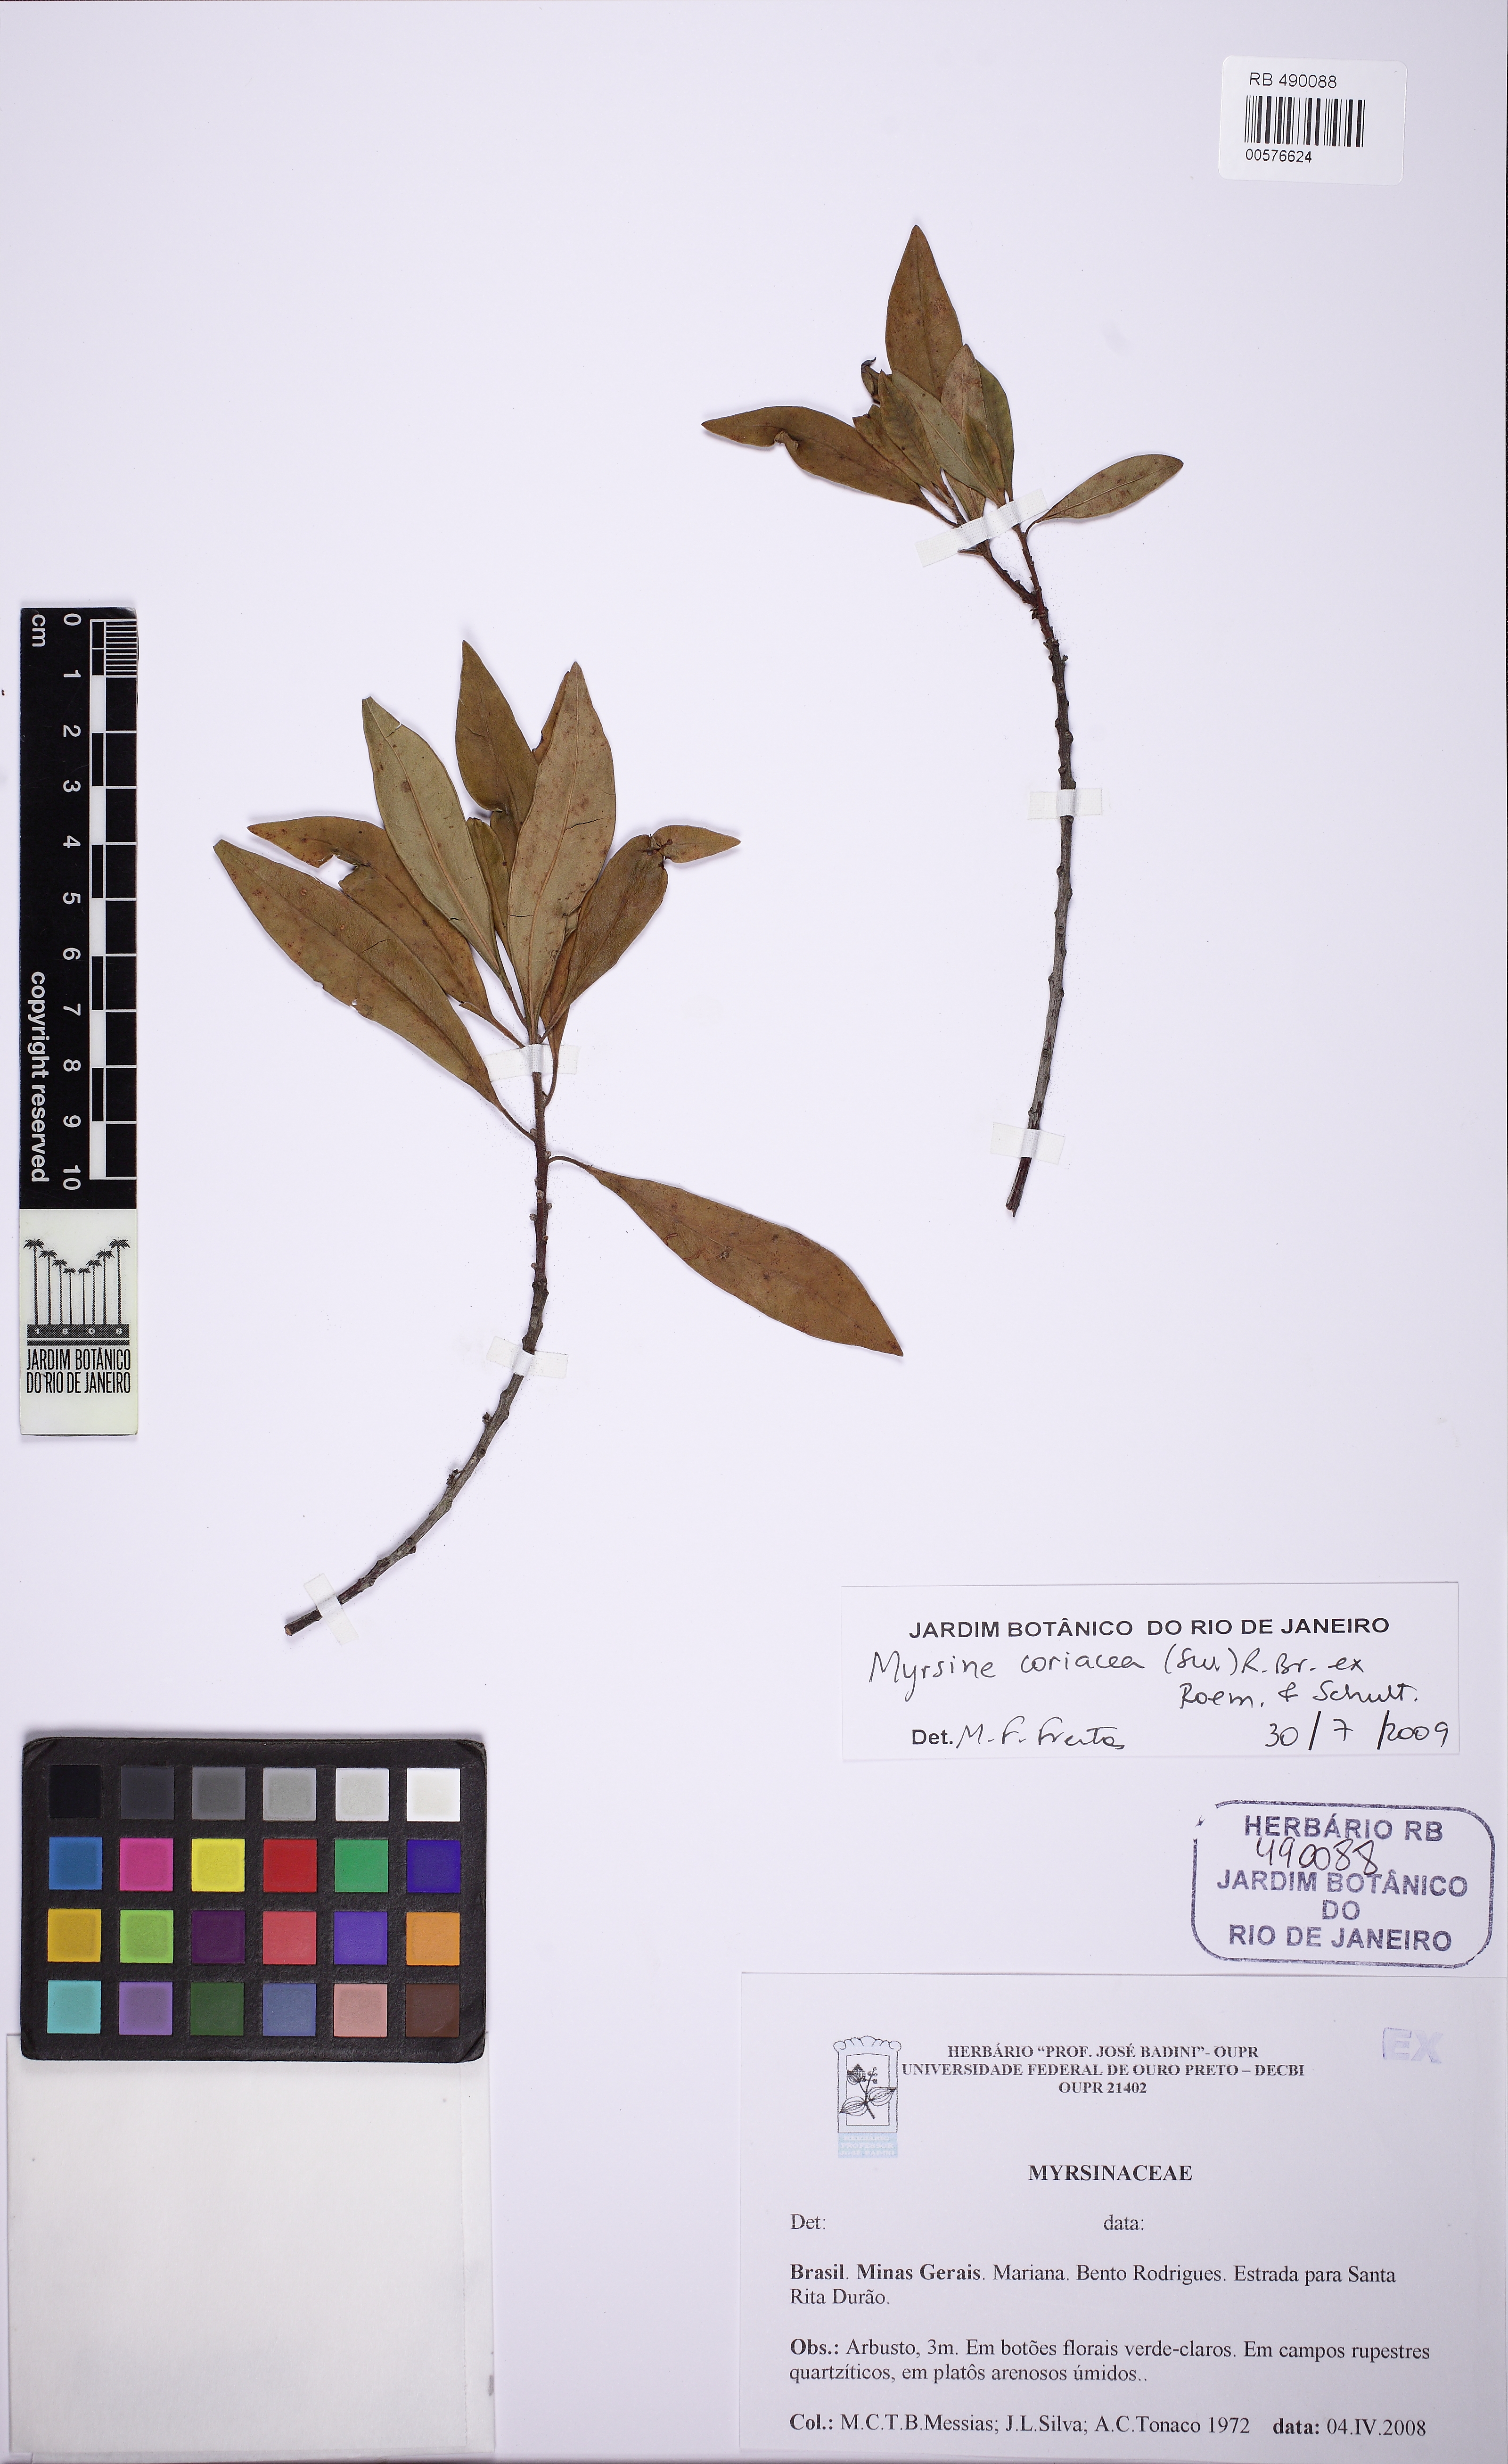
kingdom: Plantae
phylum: Tracheophyta
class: Magnoliopsida
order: Ericales
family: Primulaceae
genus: Myrsine
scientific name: Myrsine coriacea
